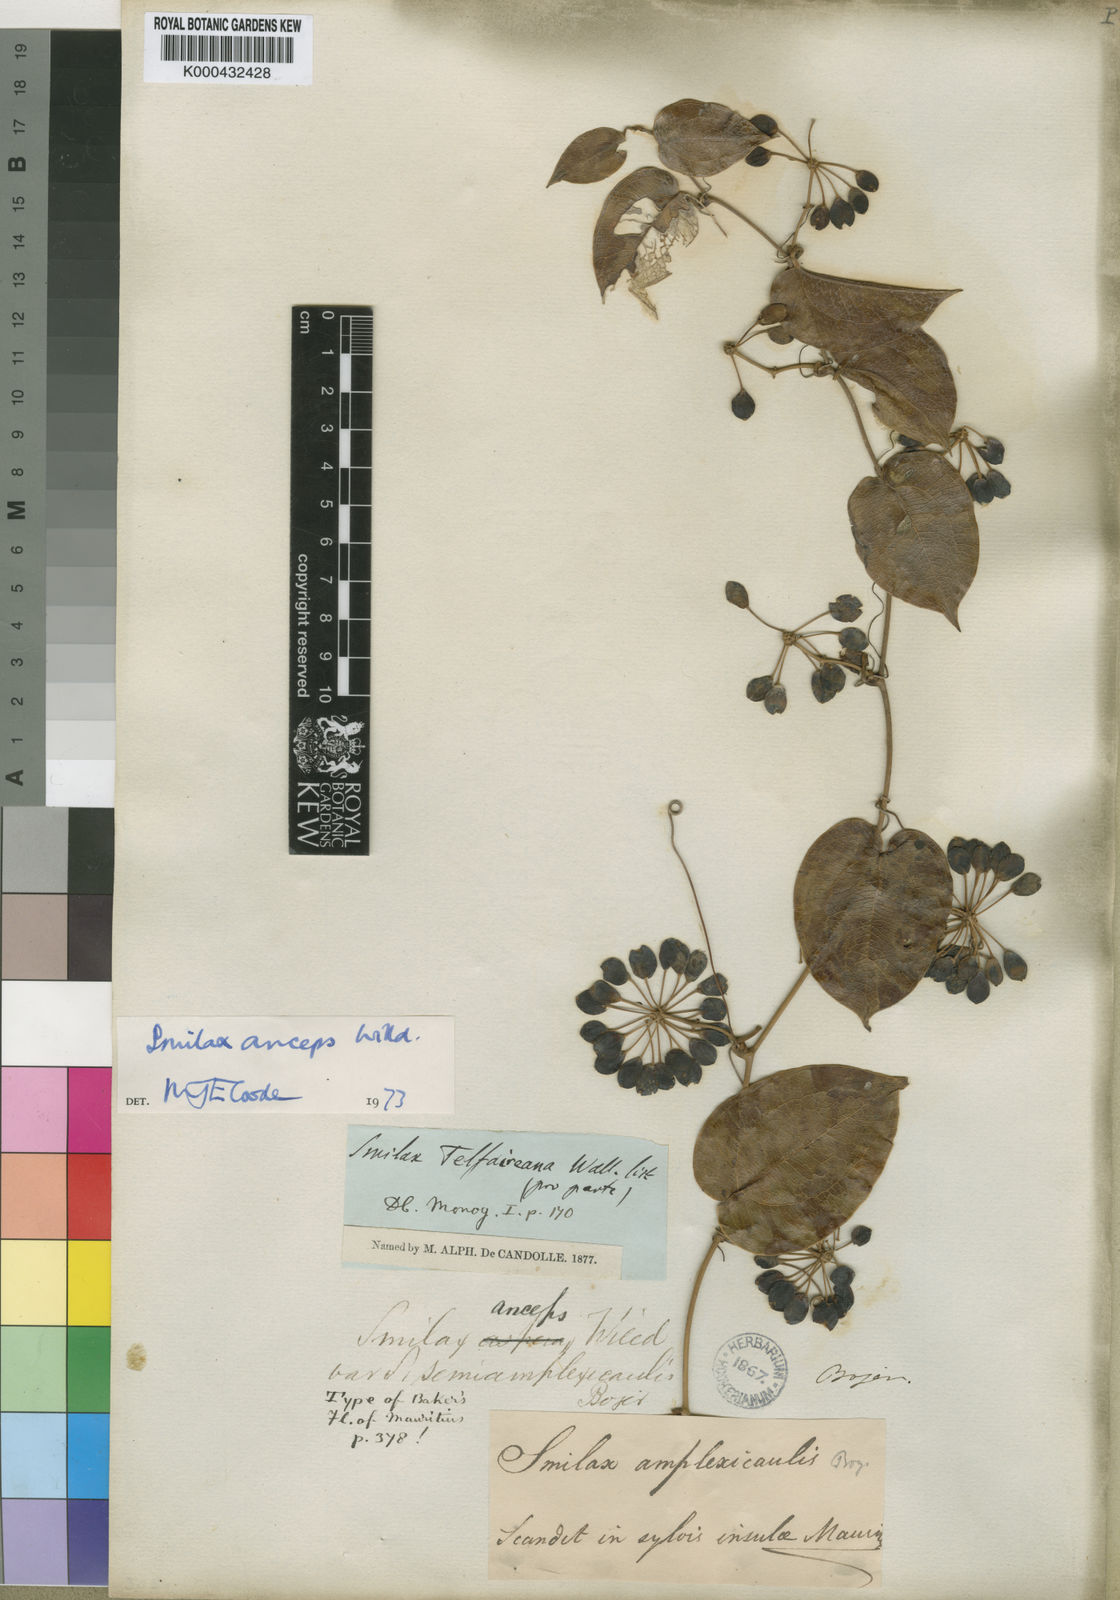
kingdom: Plantae
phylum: Tracheophyta
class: Liliopsida
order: Liliales
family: Smilacaceae
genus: Smilax
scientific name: Smilax anceps
